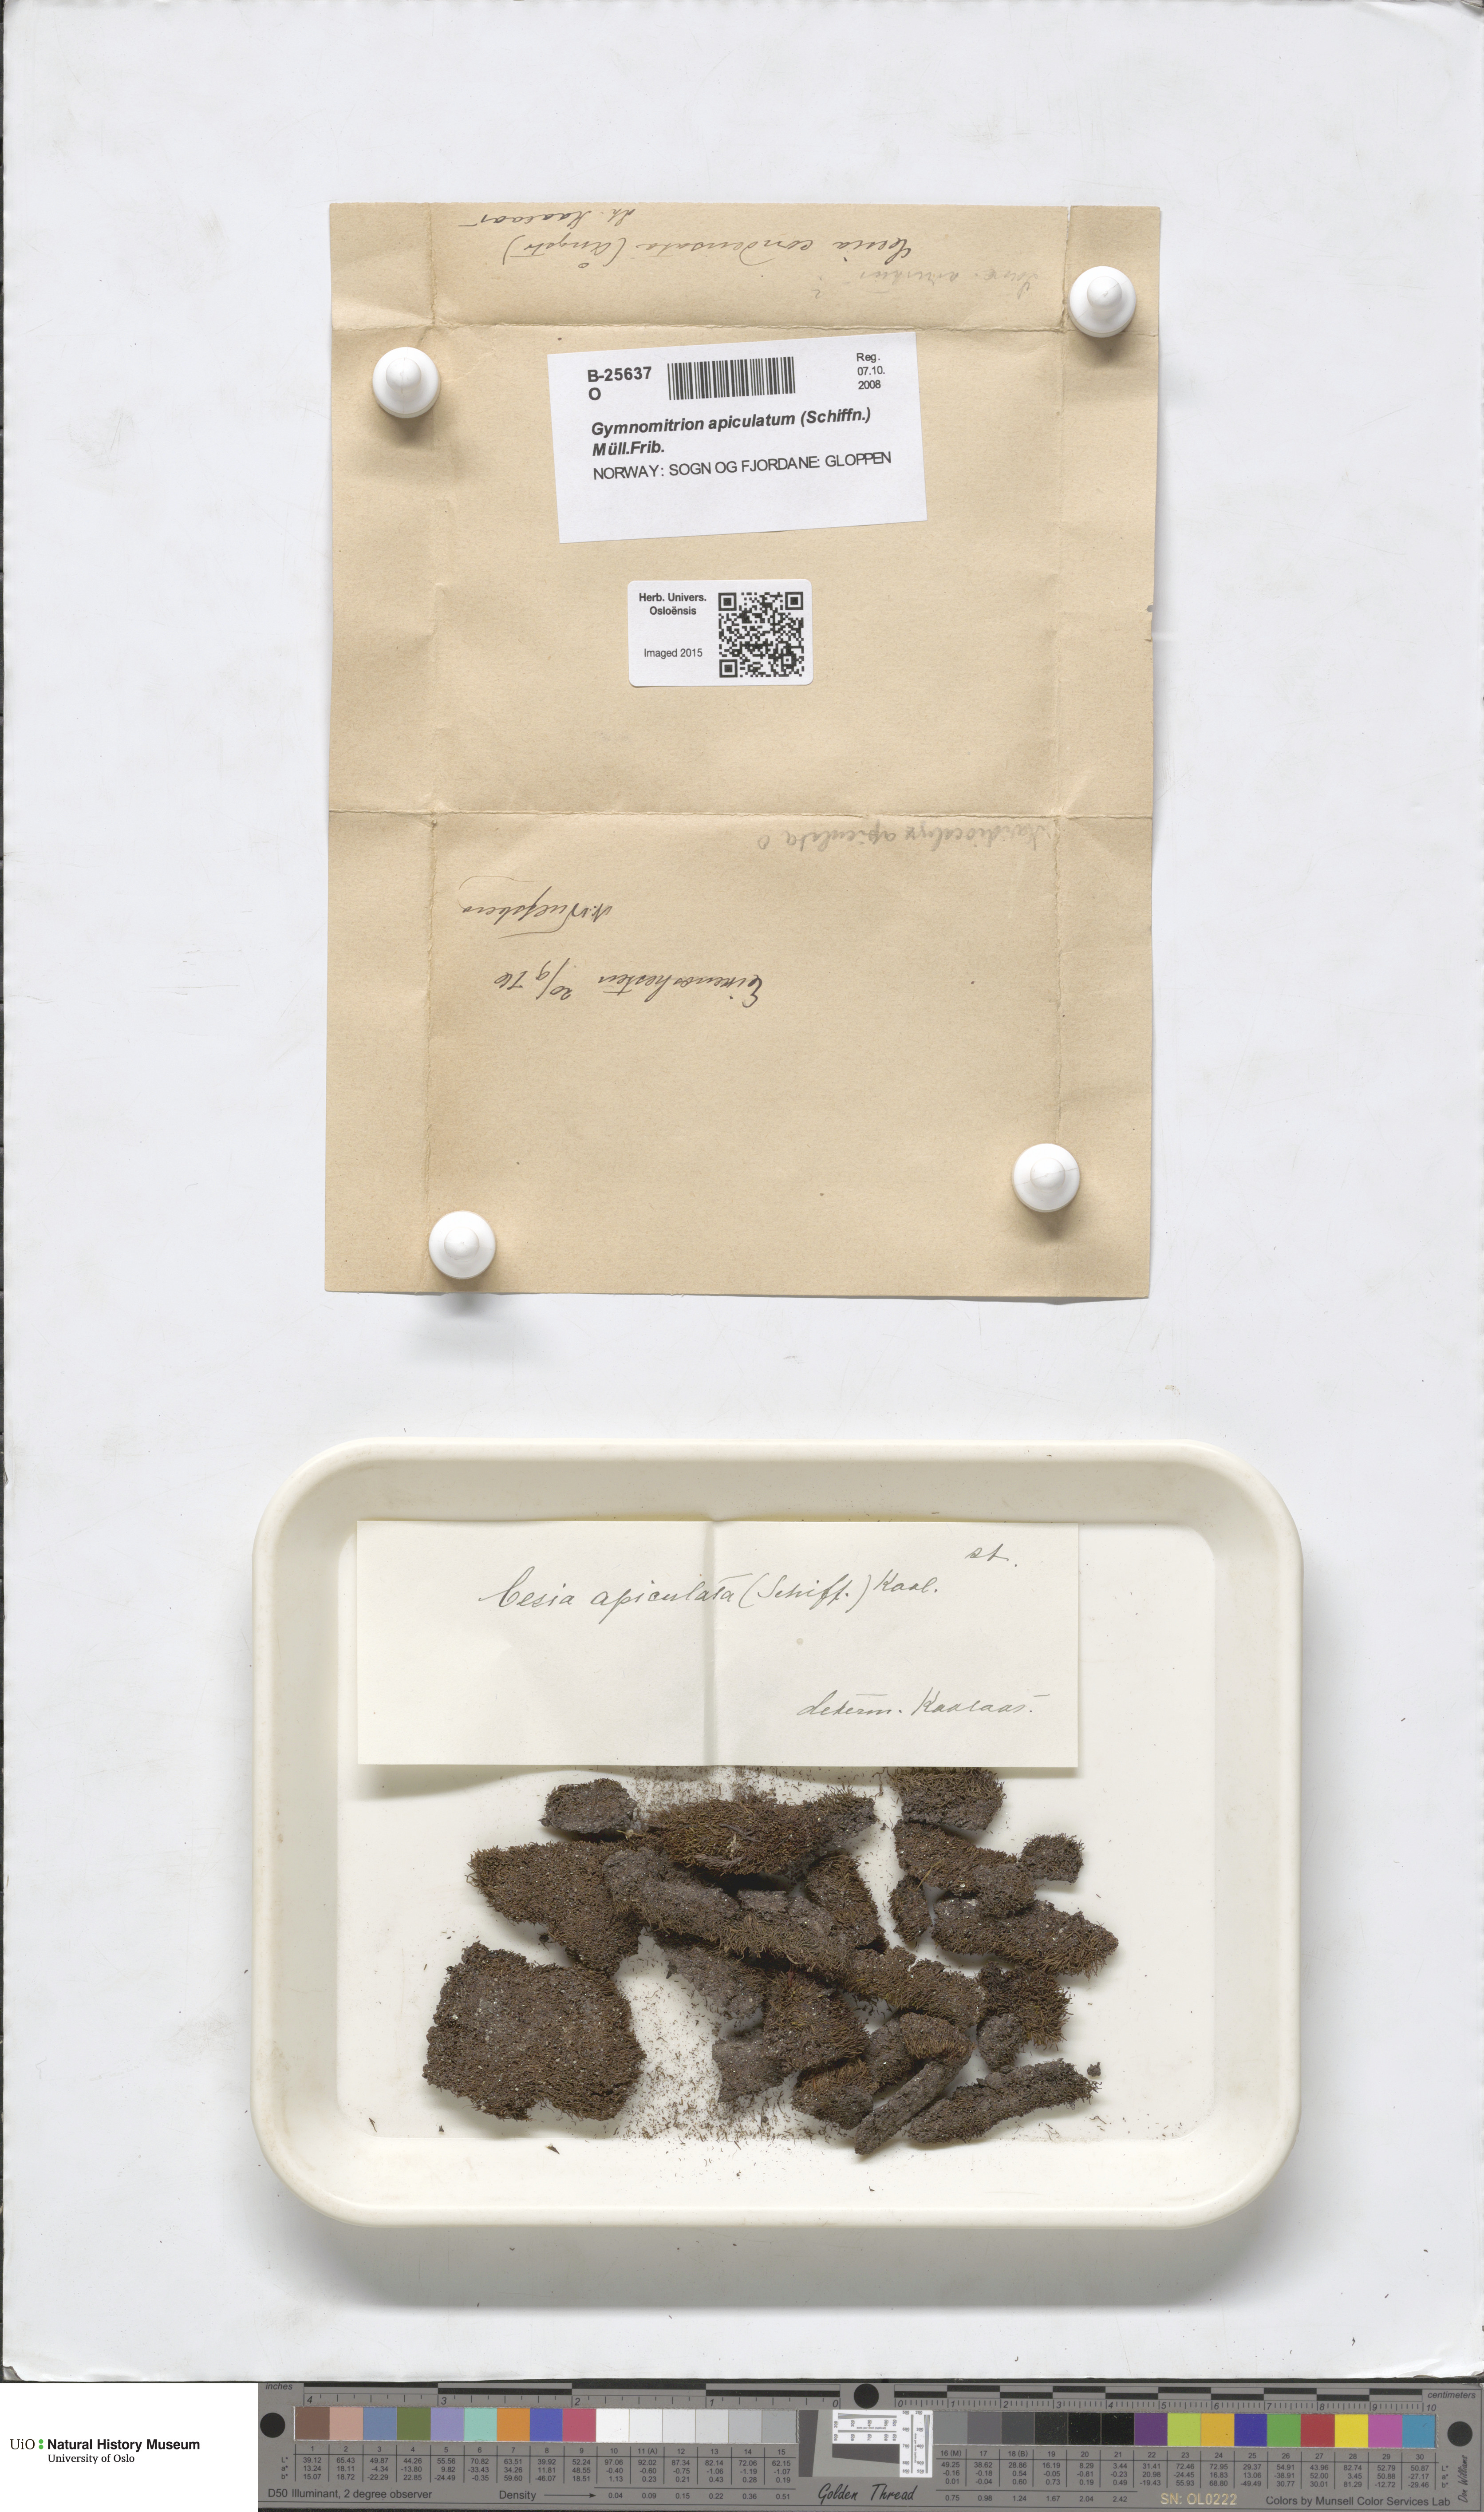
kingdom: Plantae
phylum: Marchantiophyta
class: Jungermanniopsida
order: Jungermanniales
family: Gymnomitriaceae
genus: Marsupella
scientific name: Marsupella apiculata
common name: Pointed frostwort
